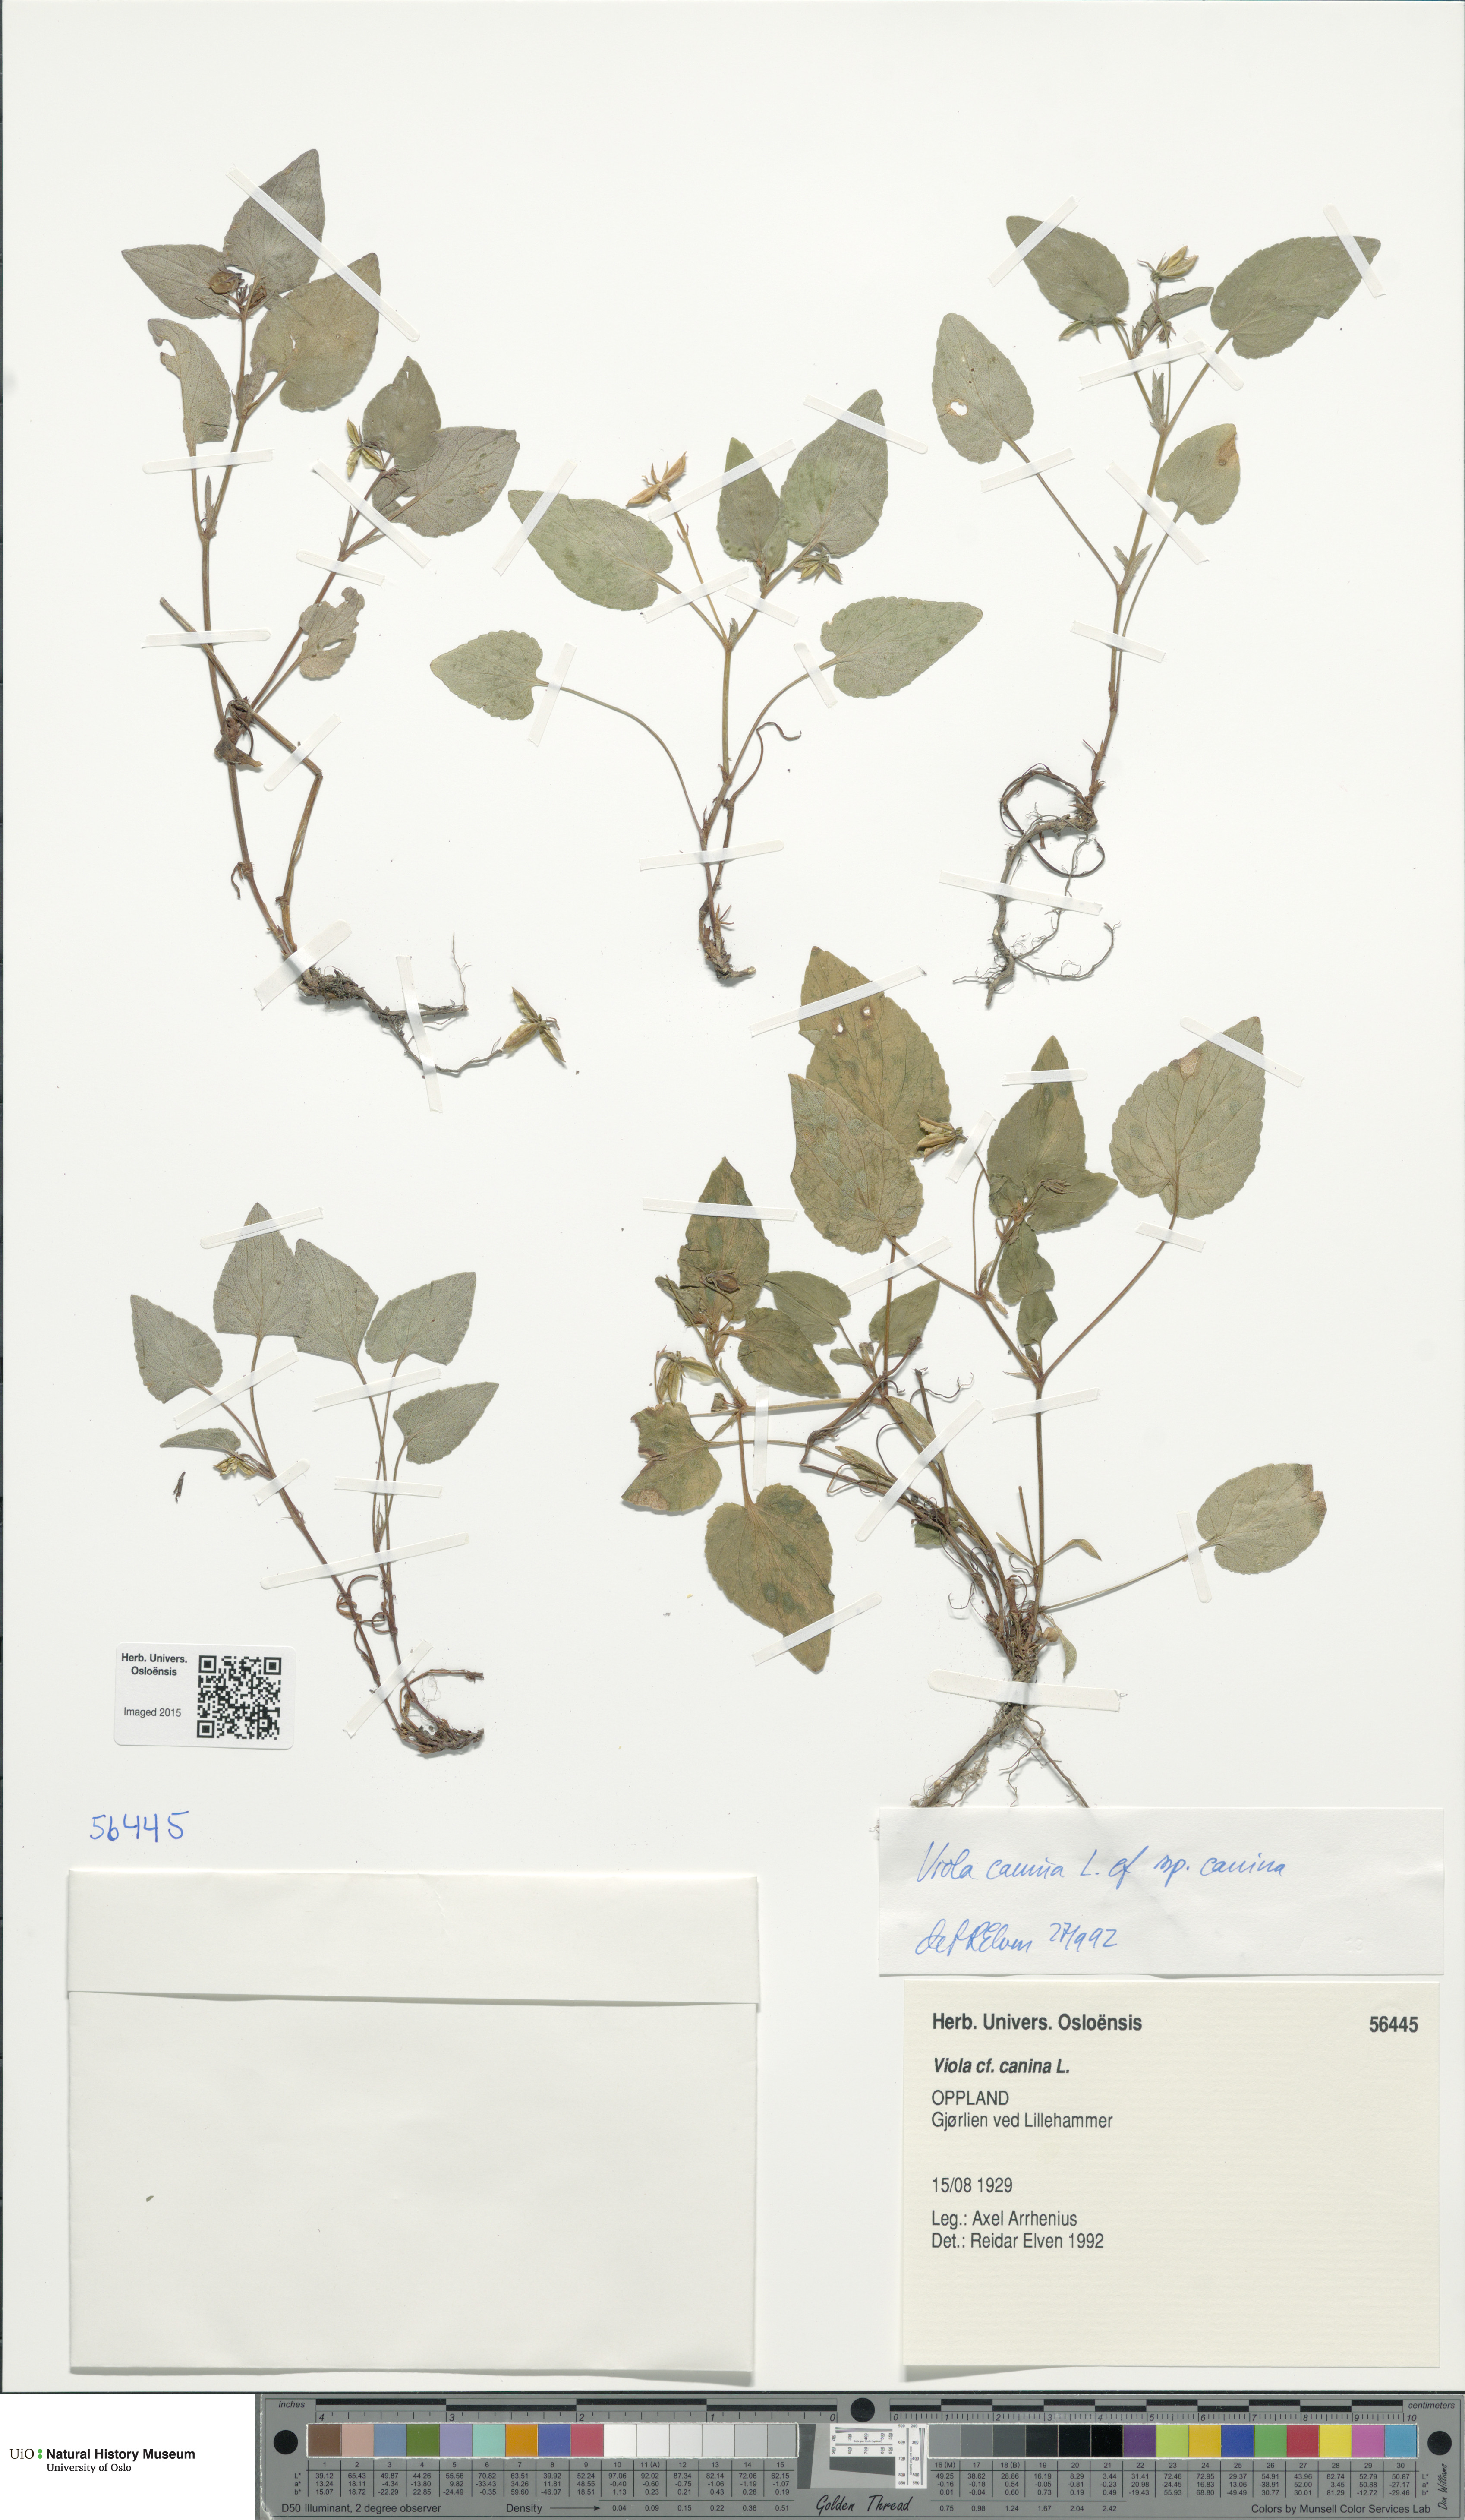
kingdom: Plantae
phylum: Tracheophyta
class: Magnoliopsida
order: Fagales
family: Betulaceae
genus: Betula
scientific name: Betula pubescens
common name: Downy birch
